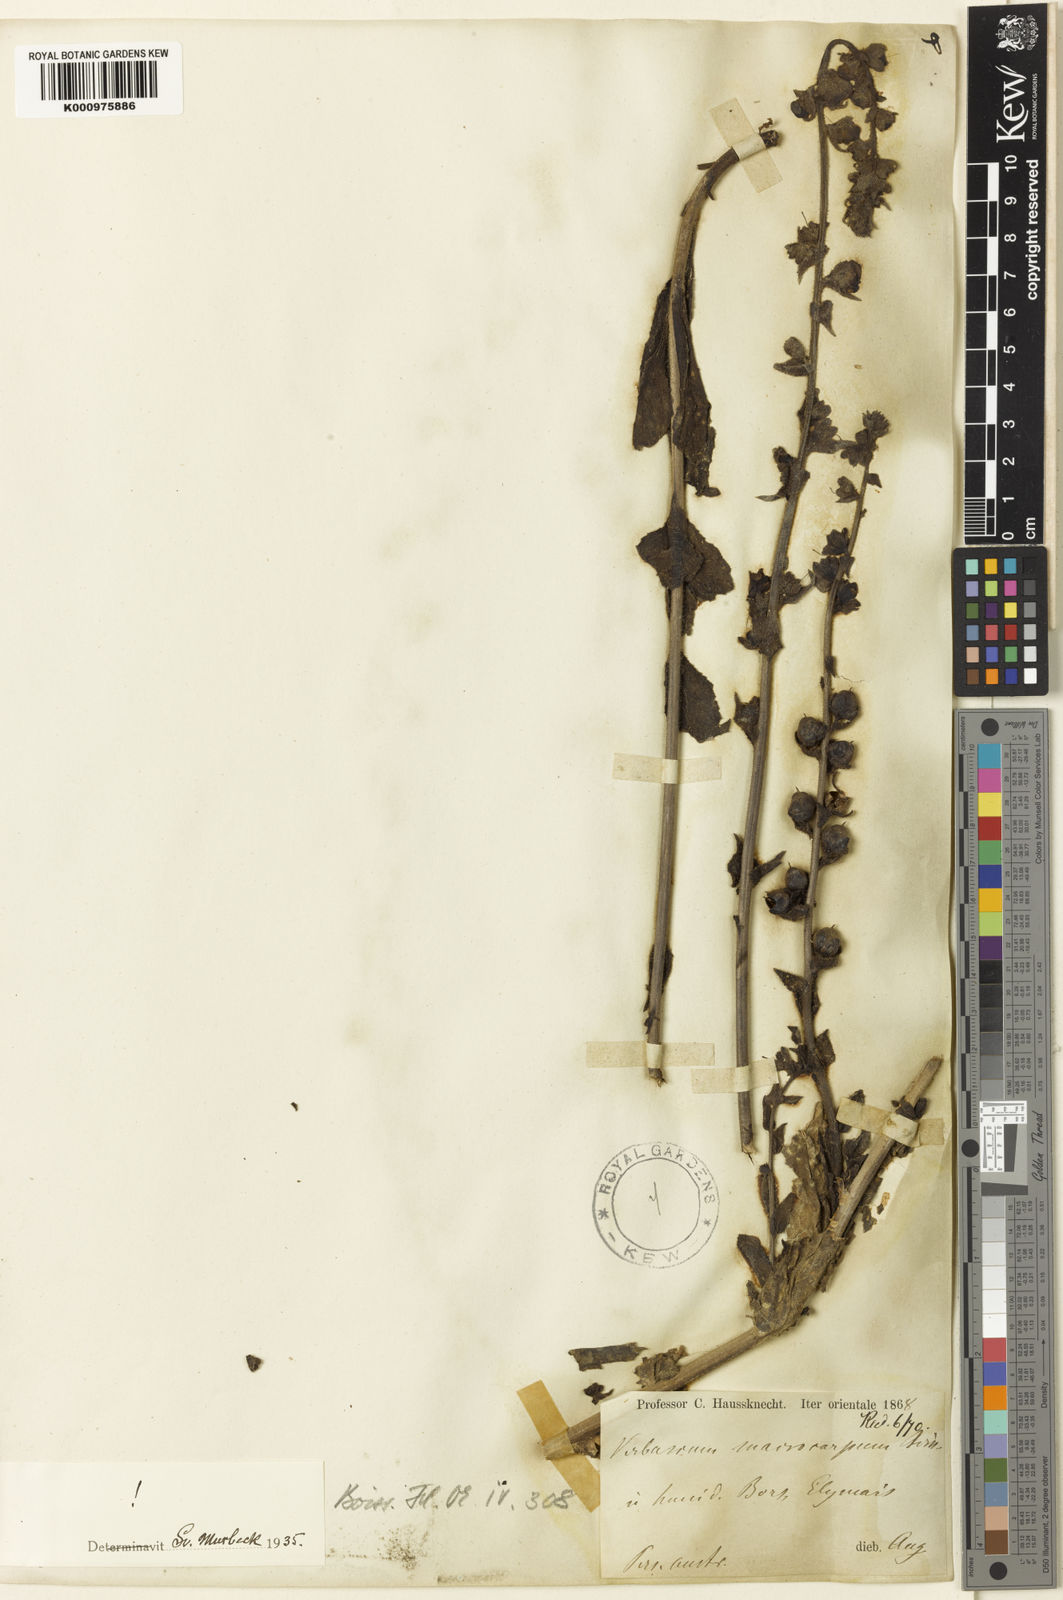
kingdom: Plantae
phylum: Tracheophyta
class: Magnoliopsida
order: Lamiales
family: Scrophulariaceae
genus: Verbascum
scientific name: Verbascum macrocarpum
